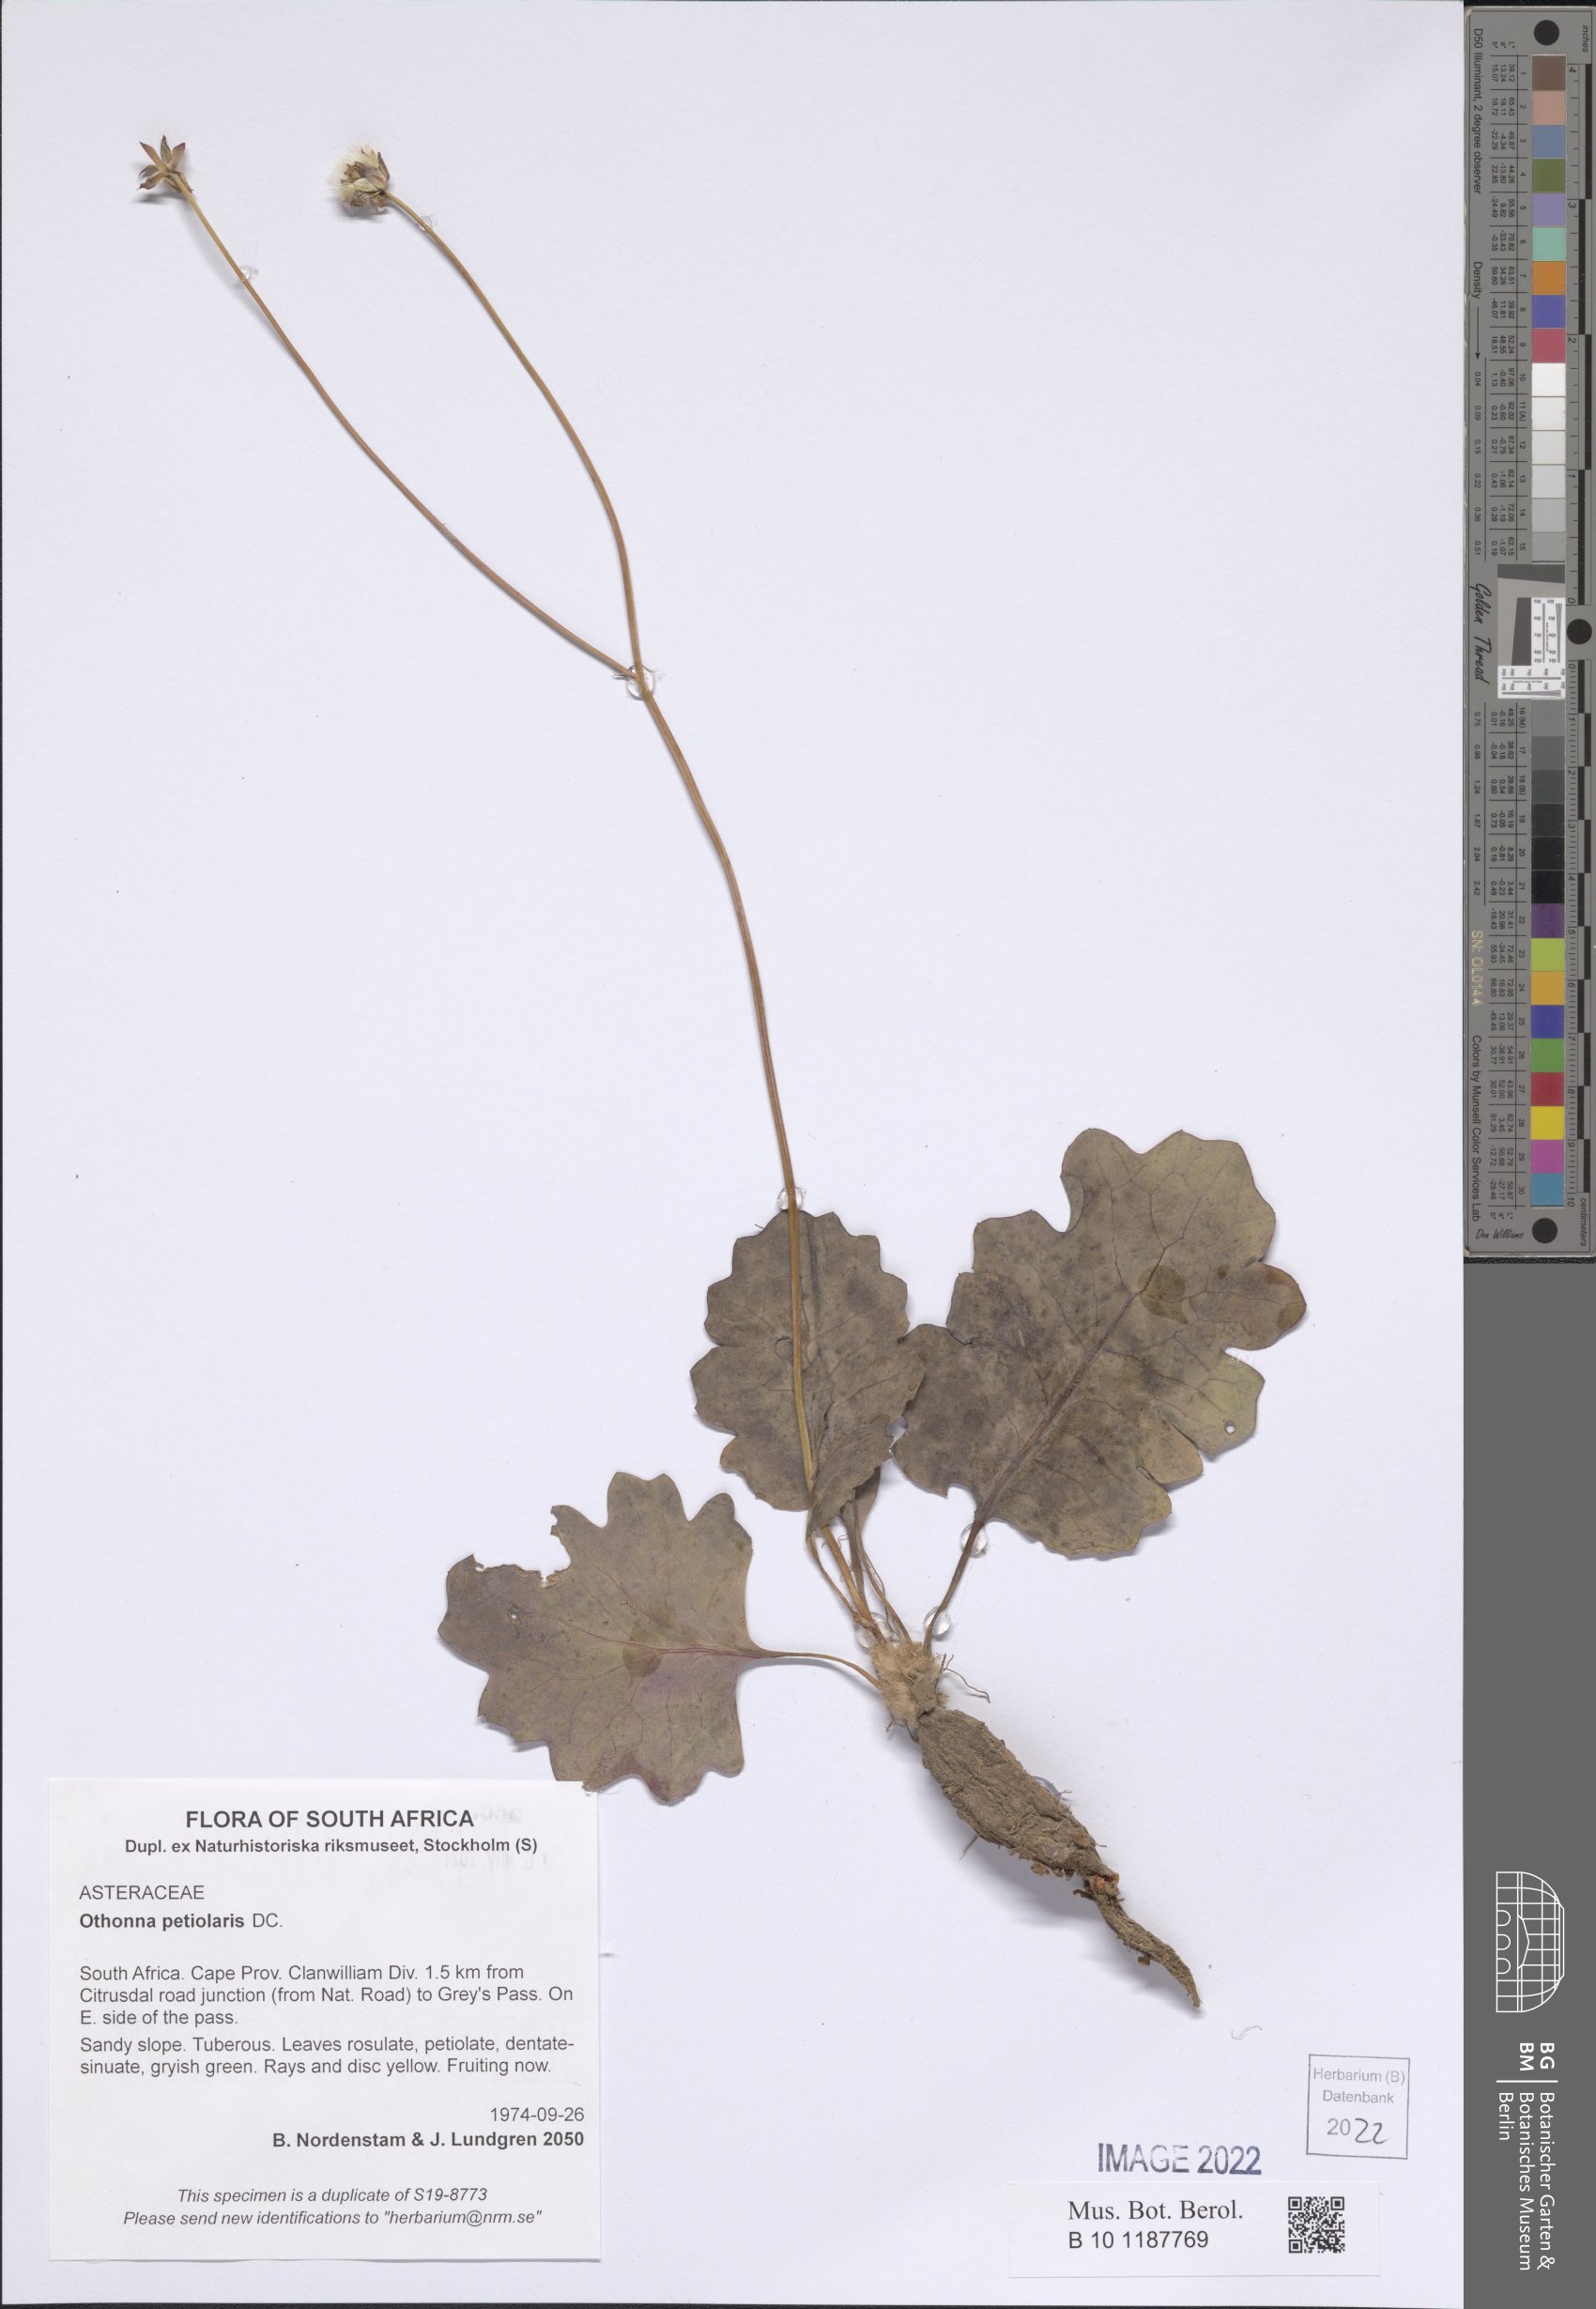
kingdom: Plantae
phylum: Tracheophyta
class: Magnoliopsida
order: Asterales
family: Asteraceae
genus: Othonna
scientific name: Othonna petiolaris
